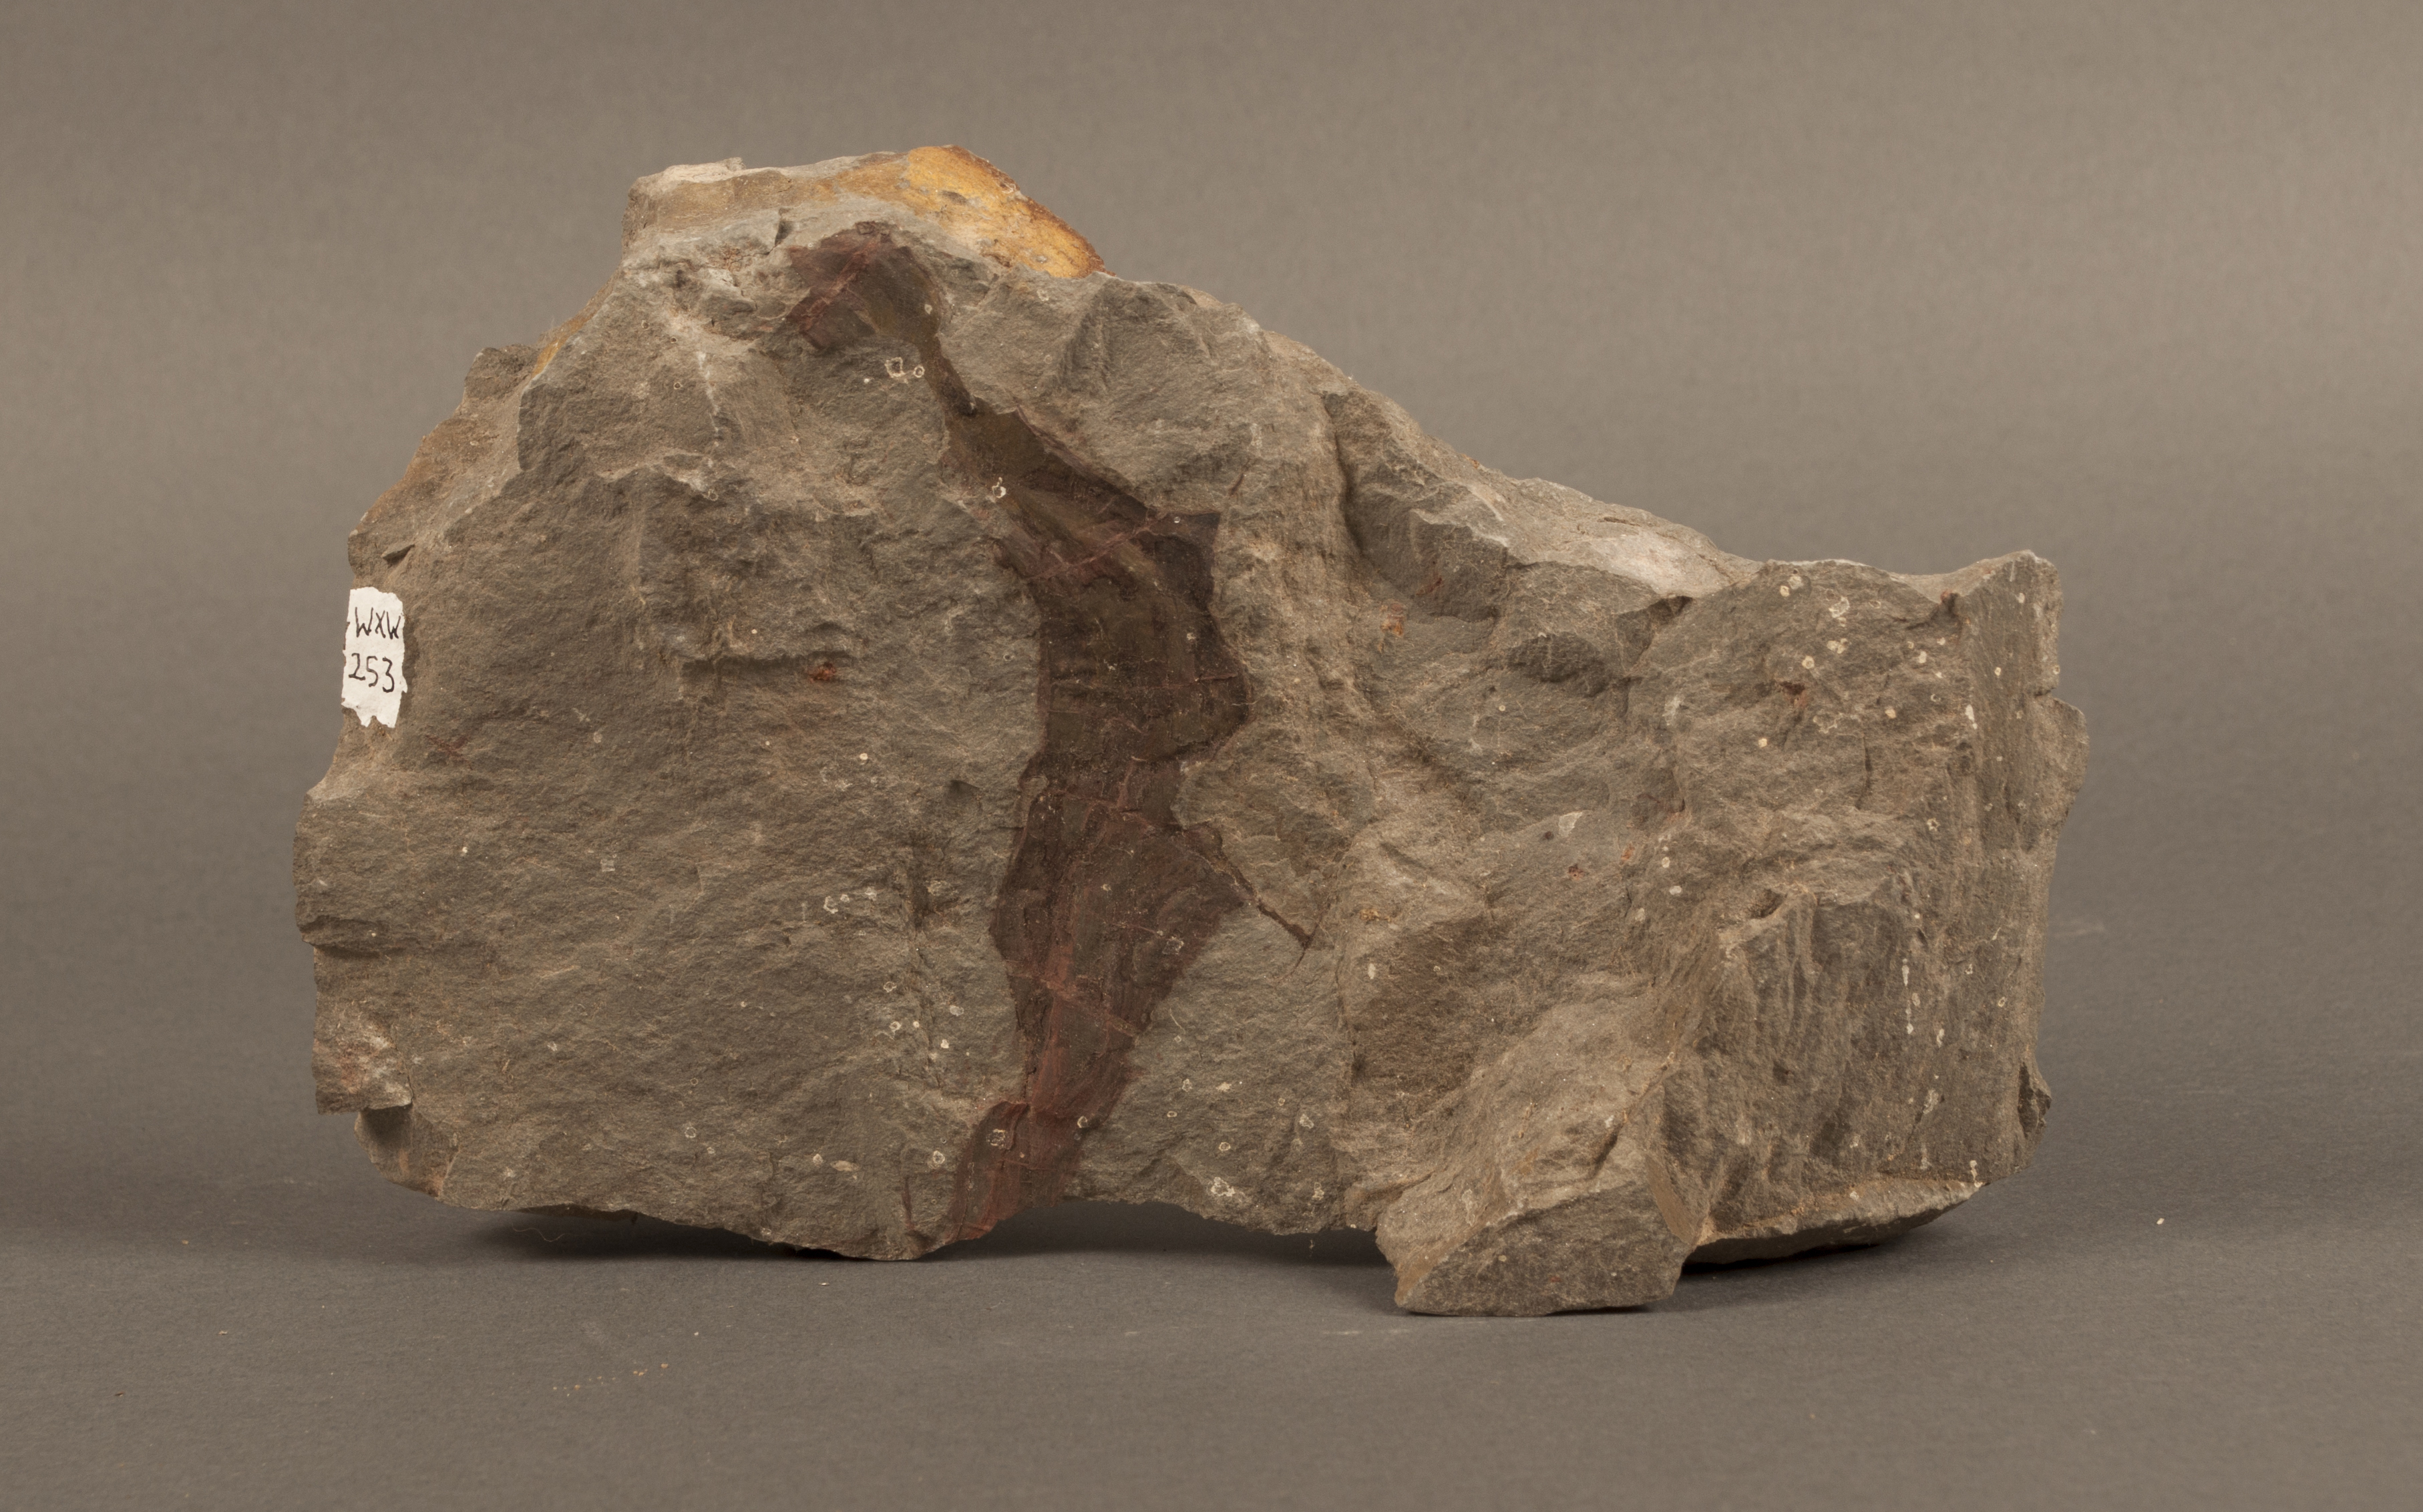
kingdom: Plantae
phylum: Tracheophyta
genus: Mosellophyton
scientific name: Mosellophyton
